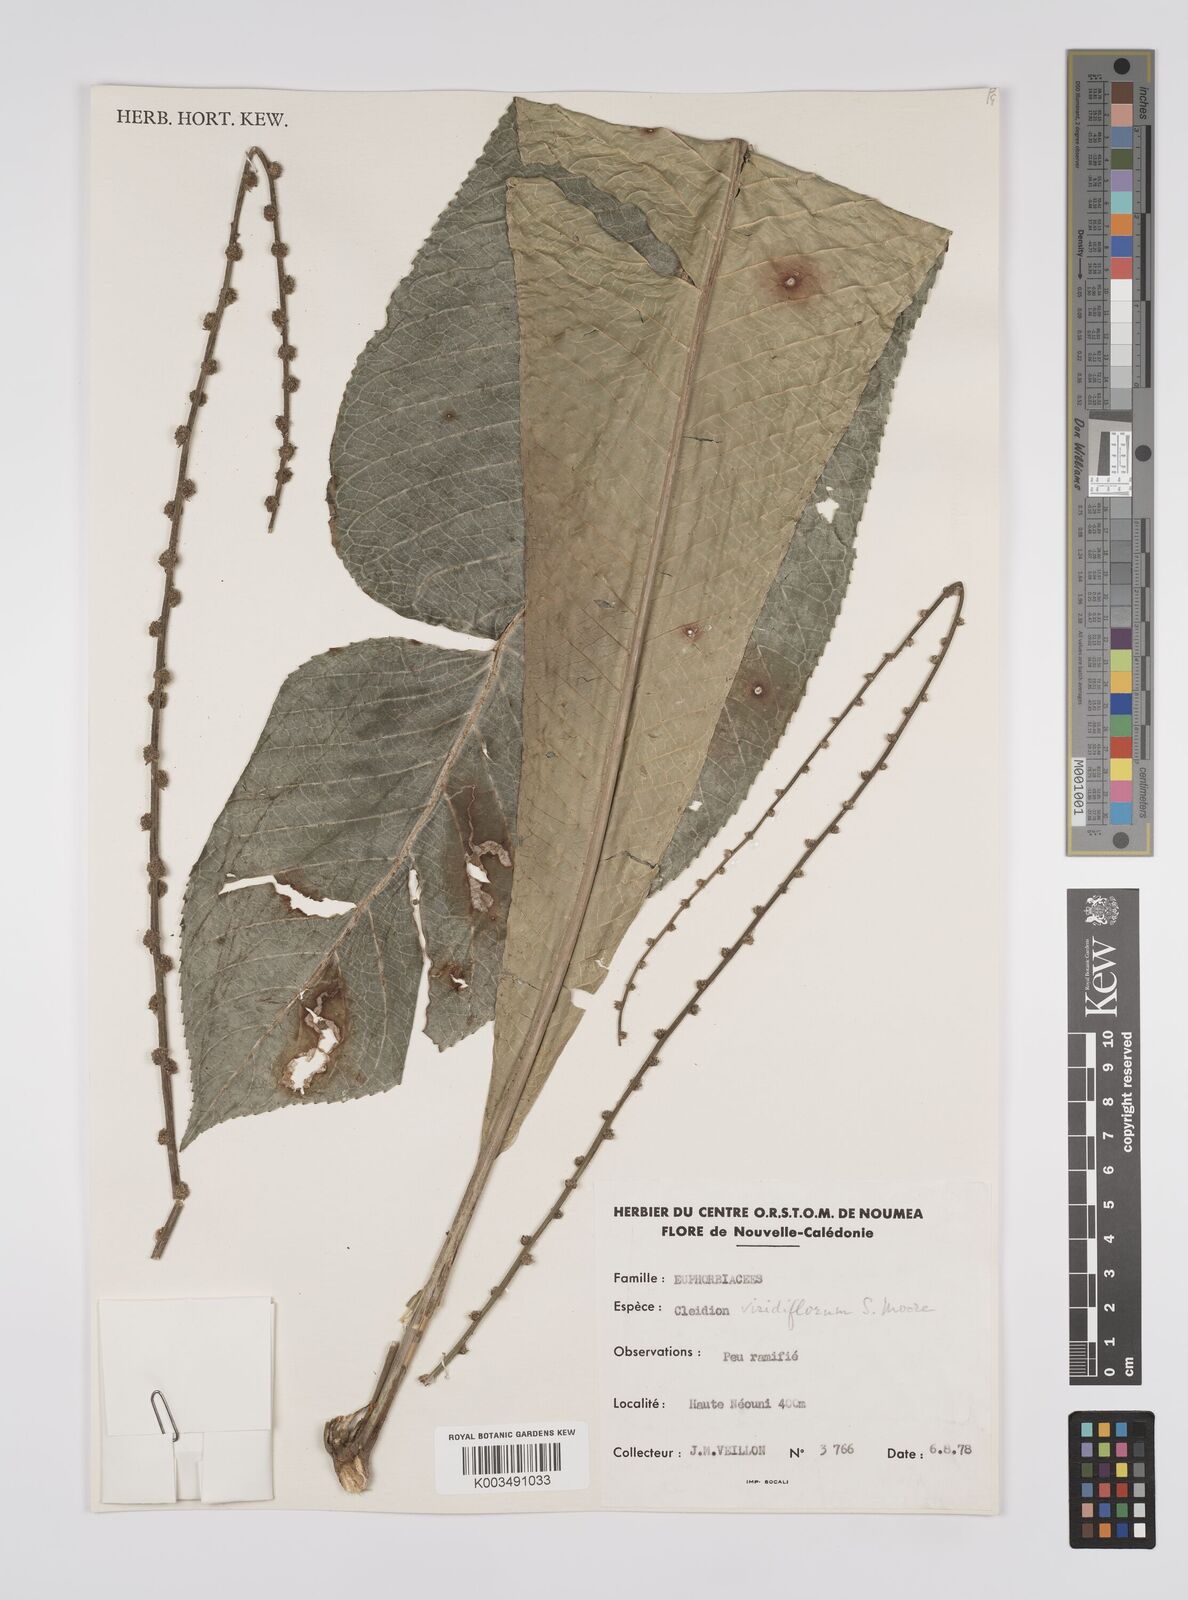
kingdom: Plantae
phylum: Tracheophyta
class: Magnoliopsida
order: Malpighiales
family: Euphorbiaceae
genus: Cleidion
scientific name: Cleidion macrophyllum
